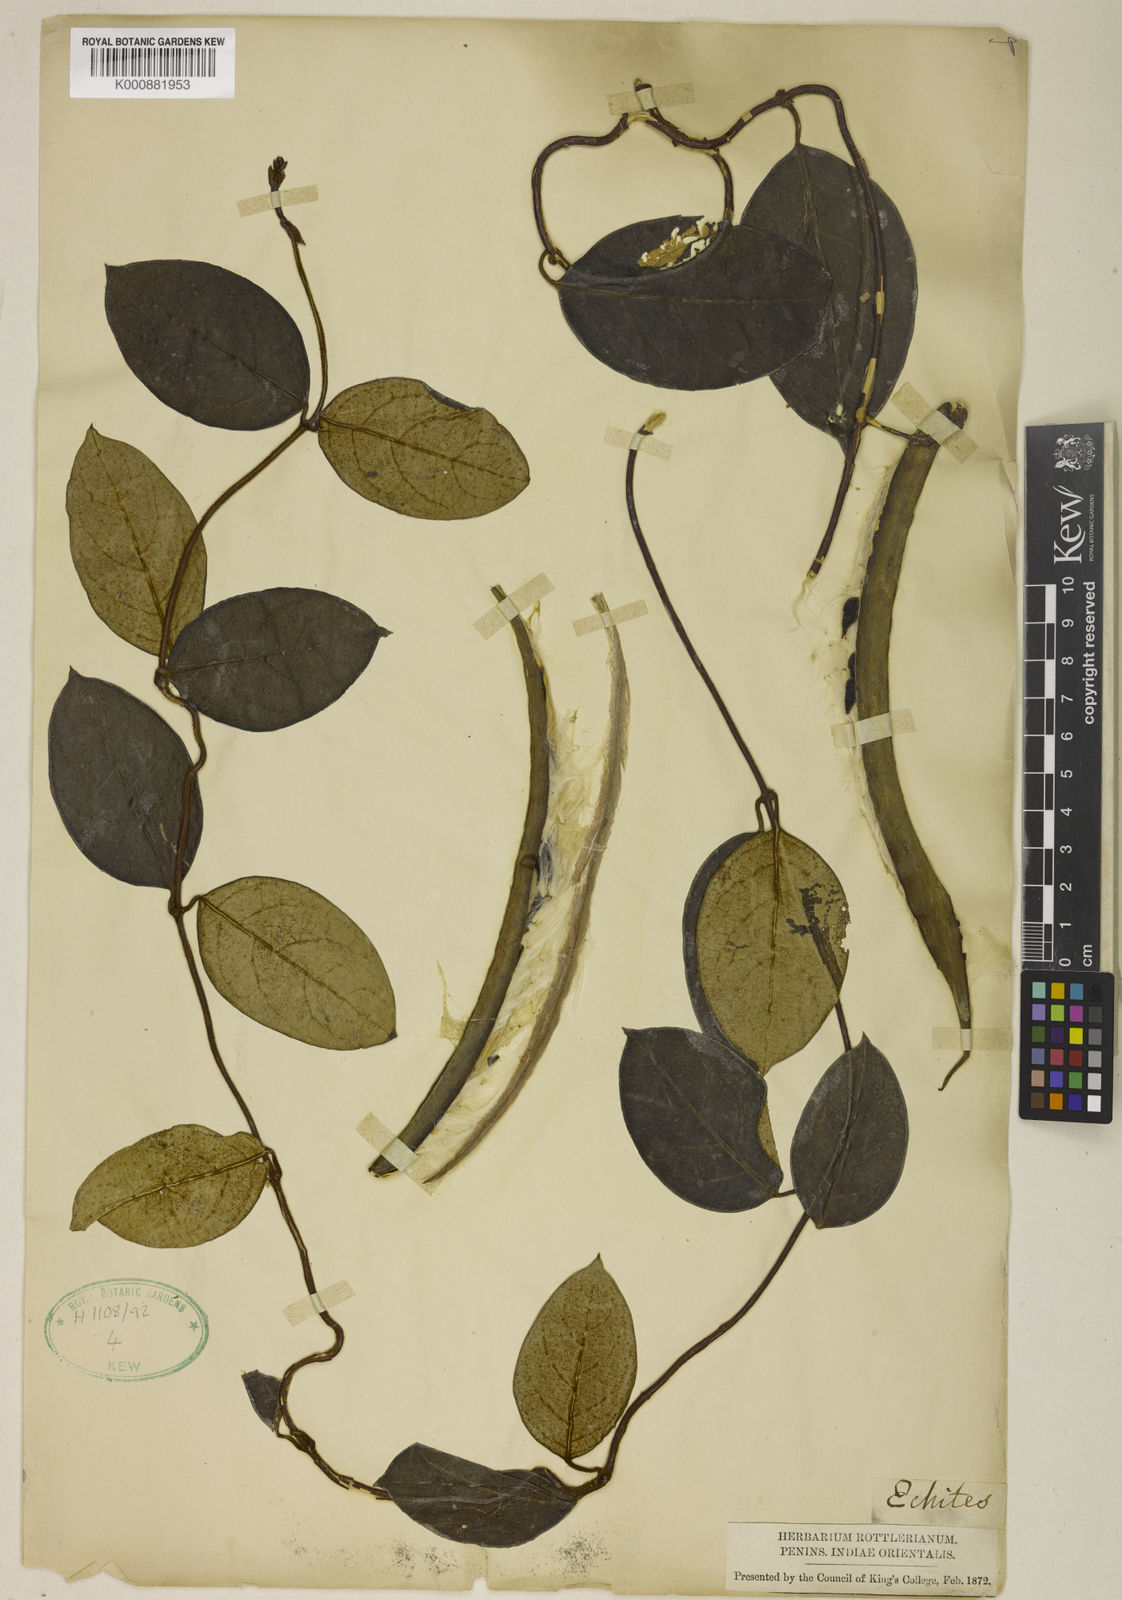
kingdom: Plantae
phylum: Tracheophyta
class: Magnoliopsida
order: Gentianales
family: Apocynaceae
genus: Toxocarpus
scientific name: Toxocarpus longistigma
